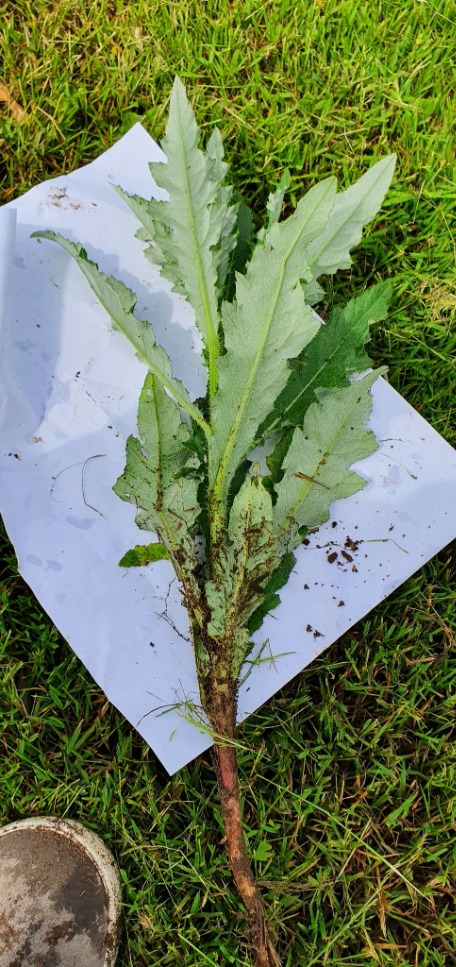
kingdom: Plantae
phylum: Tracheophyta
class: Magnoliopsida
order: Asterales
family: Asteraceae
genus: Cirsium
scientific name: Cirsium arvense
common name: Ager-tidsel
